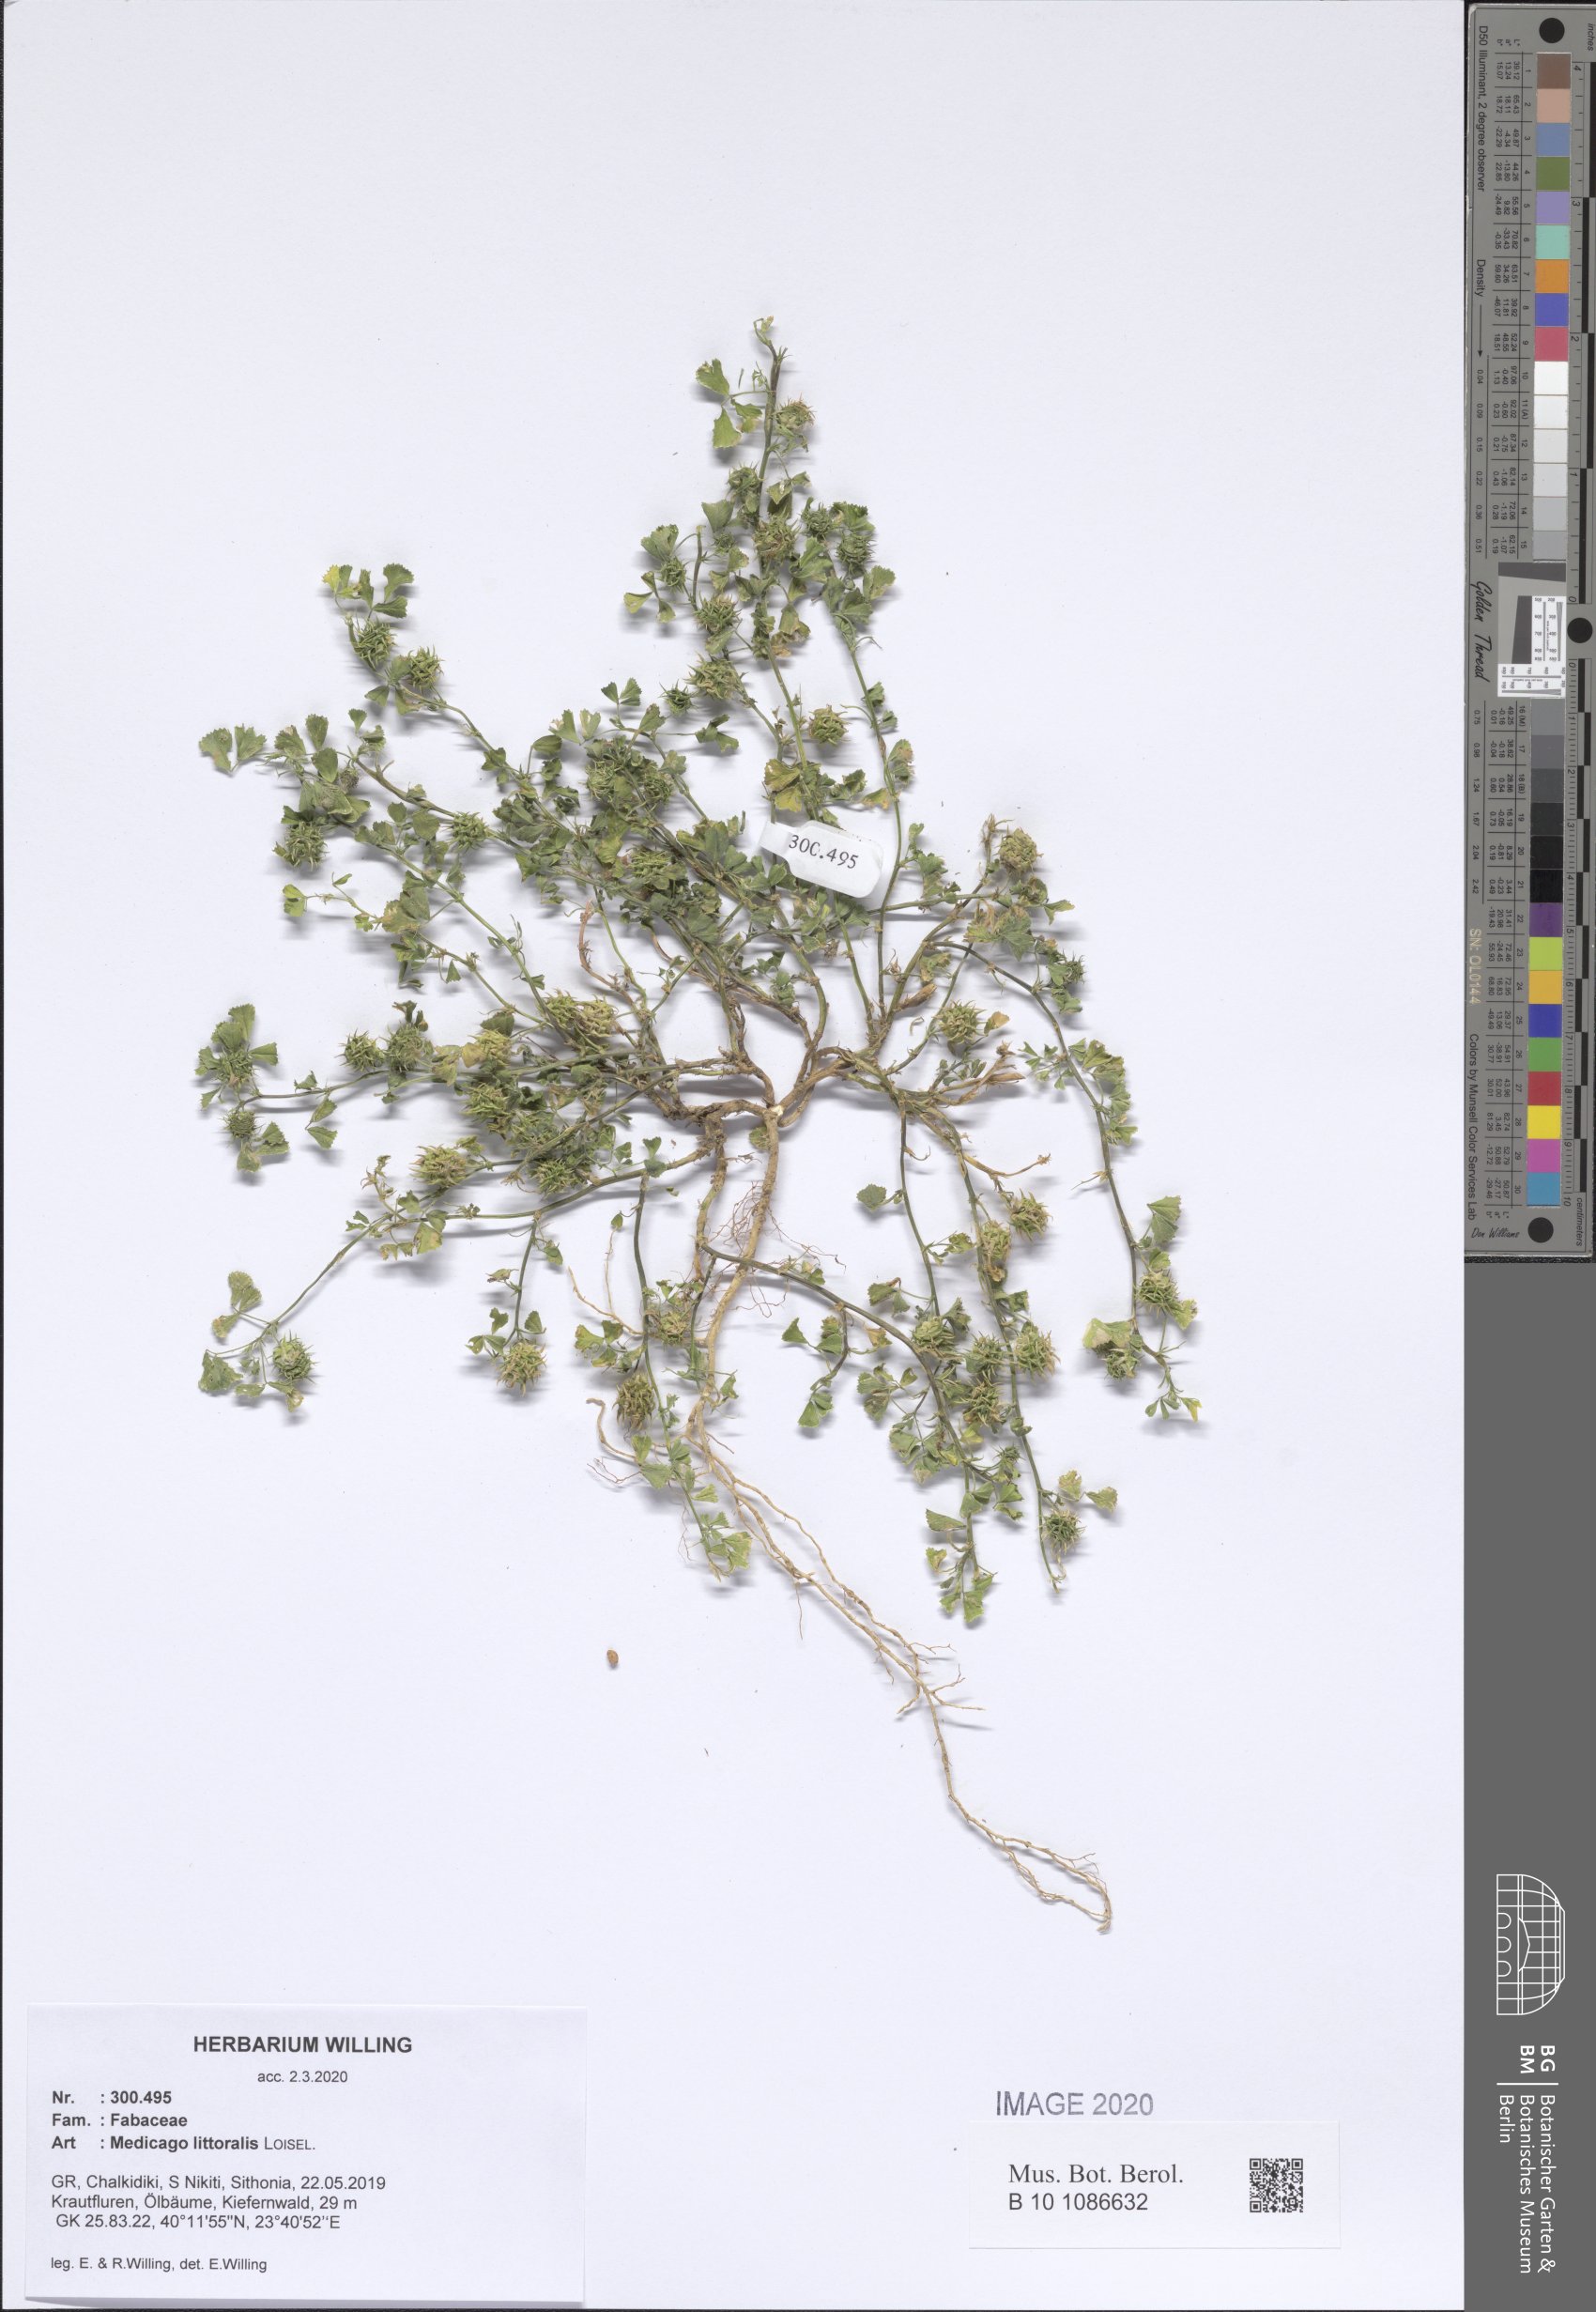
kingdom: Plantae
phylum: Tracheophyta
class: Magnoliopsida
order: Fabales
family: Fabaceae
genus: Medicago
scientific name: Medicago littoralis
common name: Shore medick
